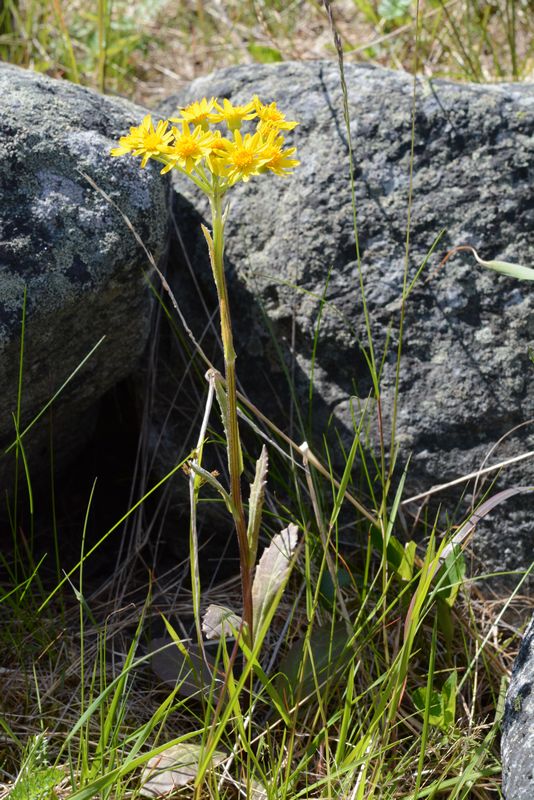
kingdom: Plantae
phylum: Tracheophyta
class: Magnoliopsida
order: Asterales
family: Asteraceae
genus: Tephroseris
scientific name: Tephroseris integrifolia
